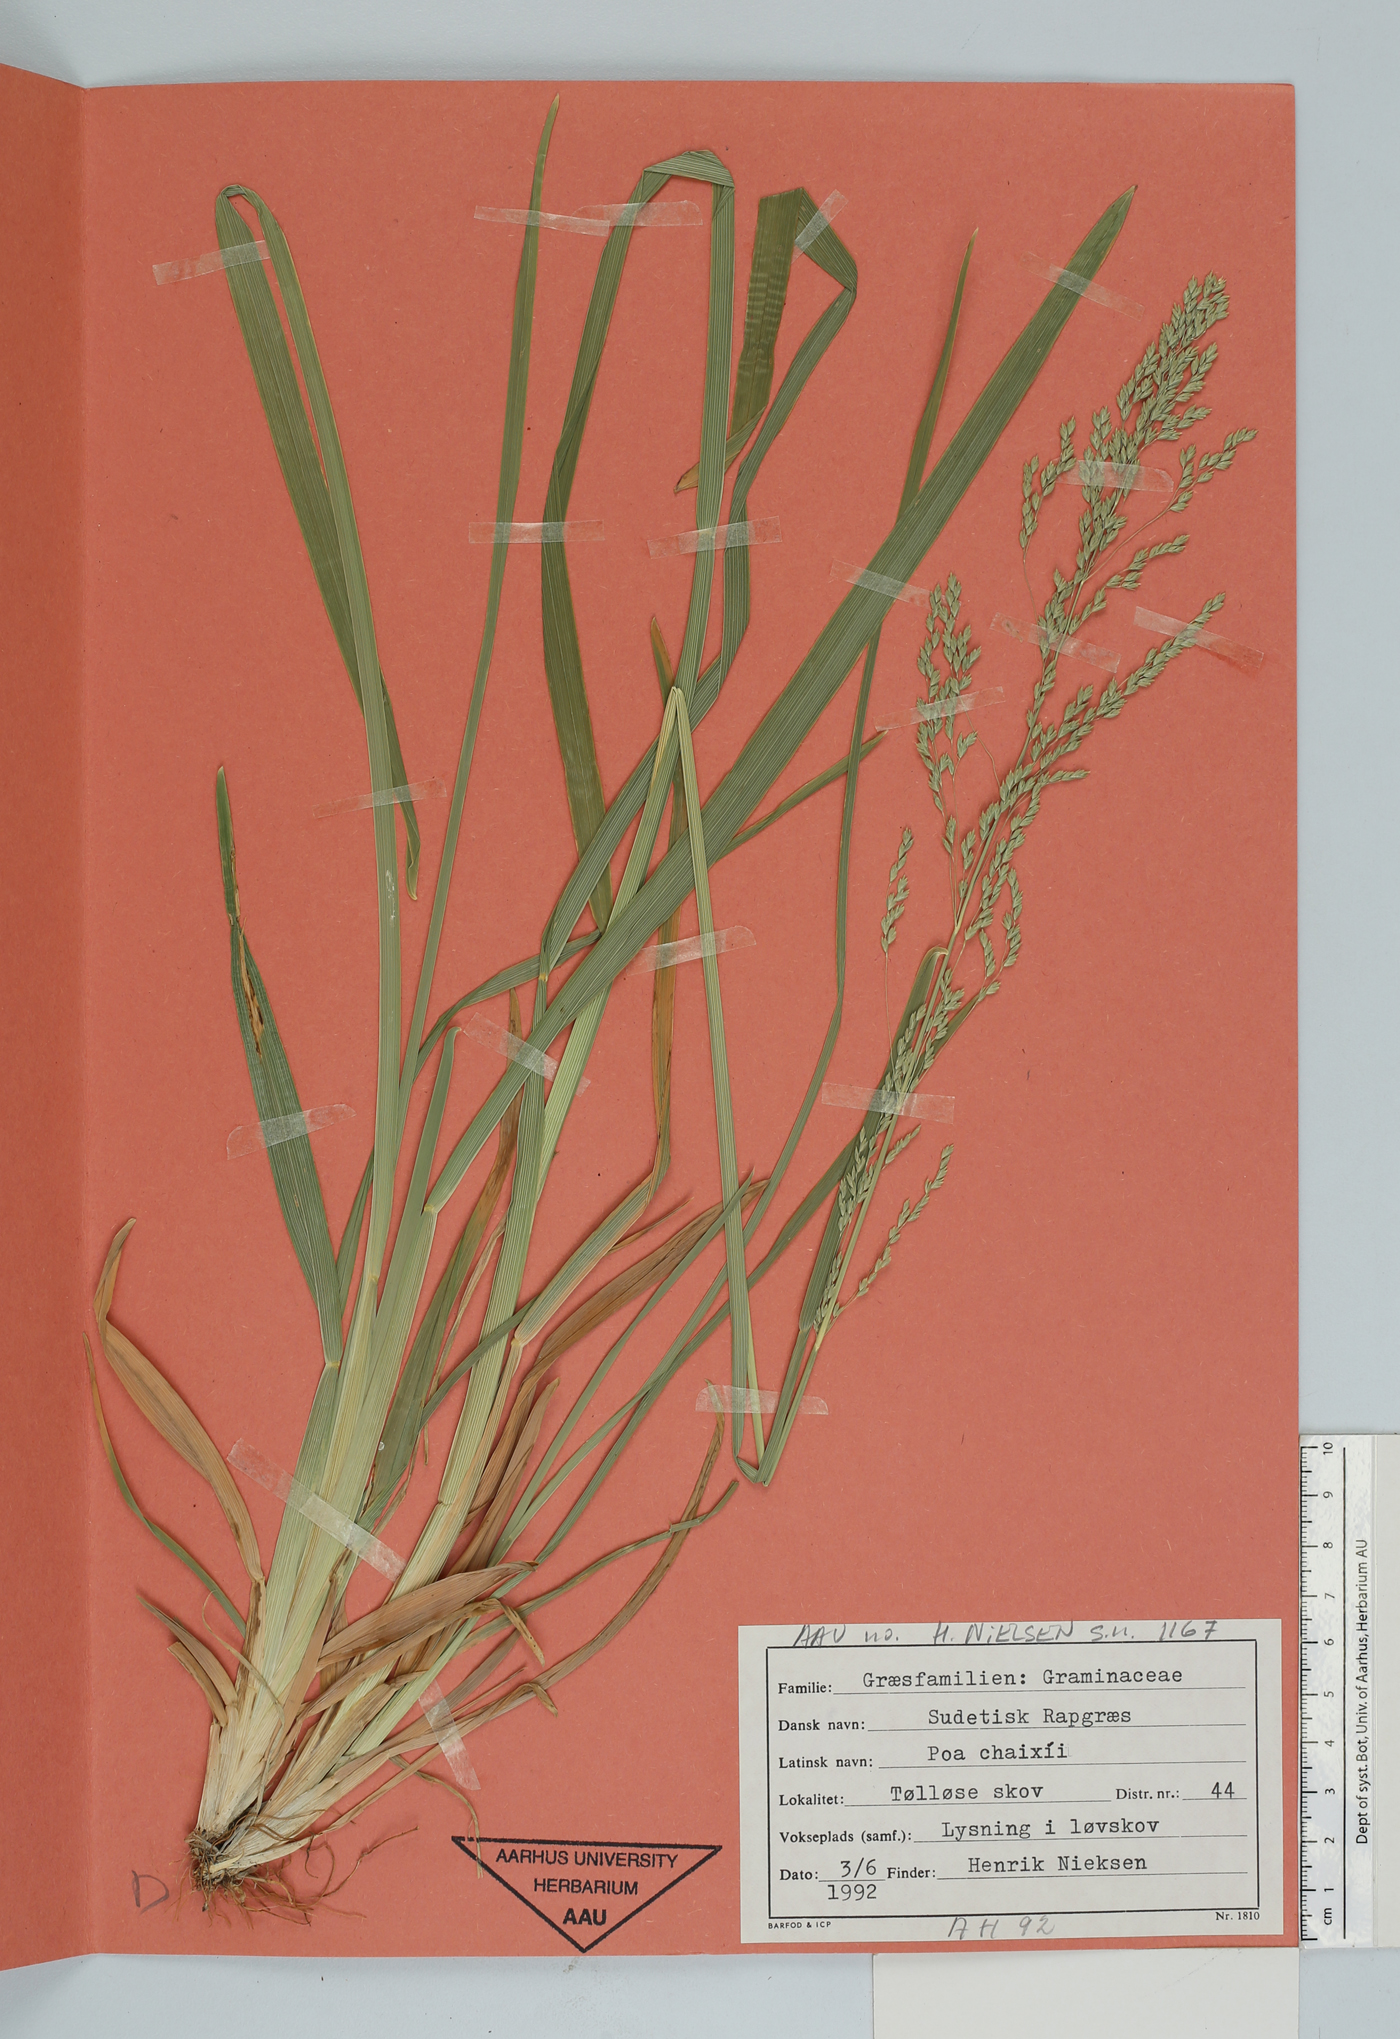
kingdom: Plantae
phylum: Tracheophyta
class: Liliopsida
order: Poales
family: Poaceae
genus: Poa
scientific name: Poa chaixii
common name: Broad-leaved meadow-grass
